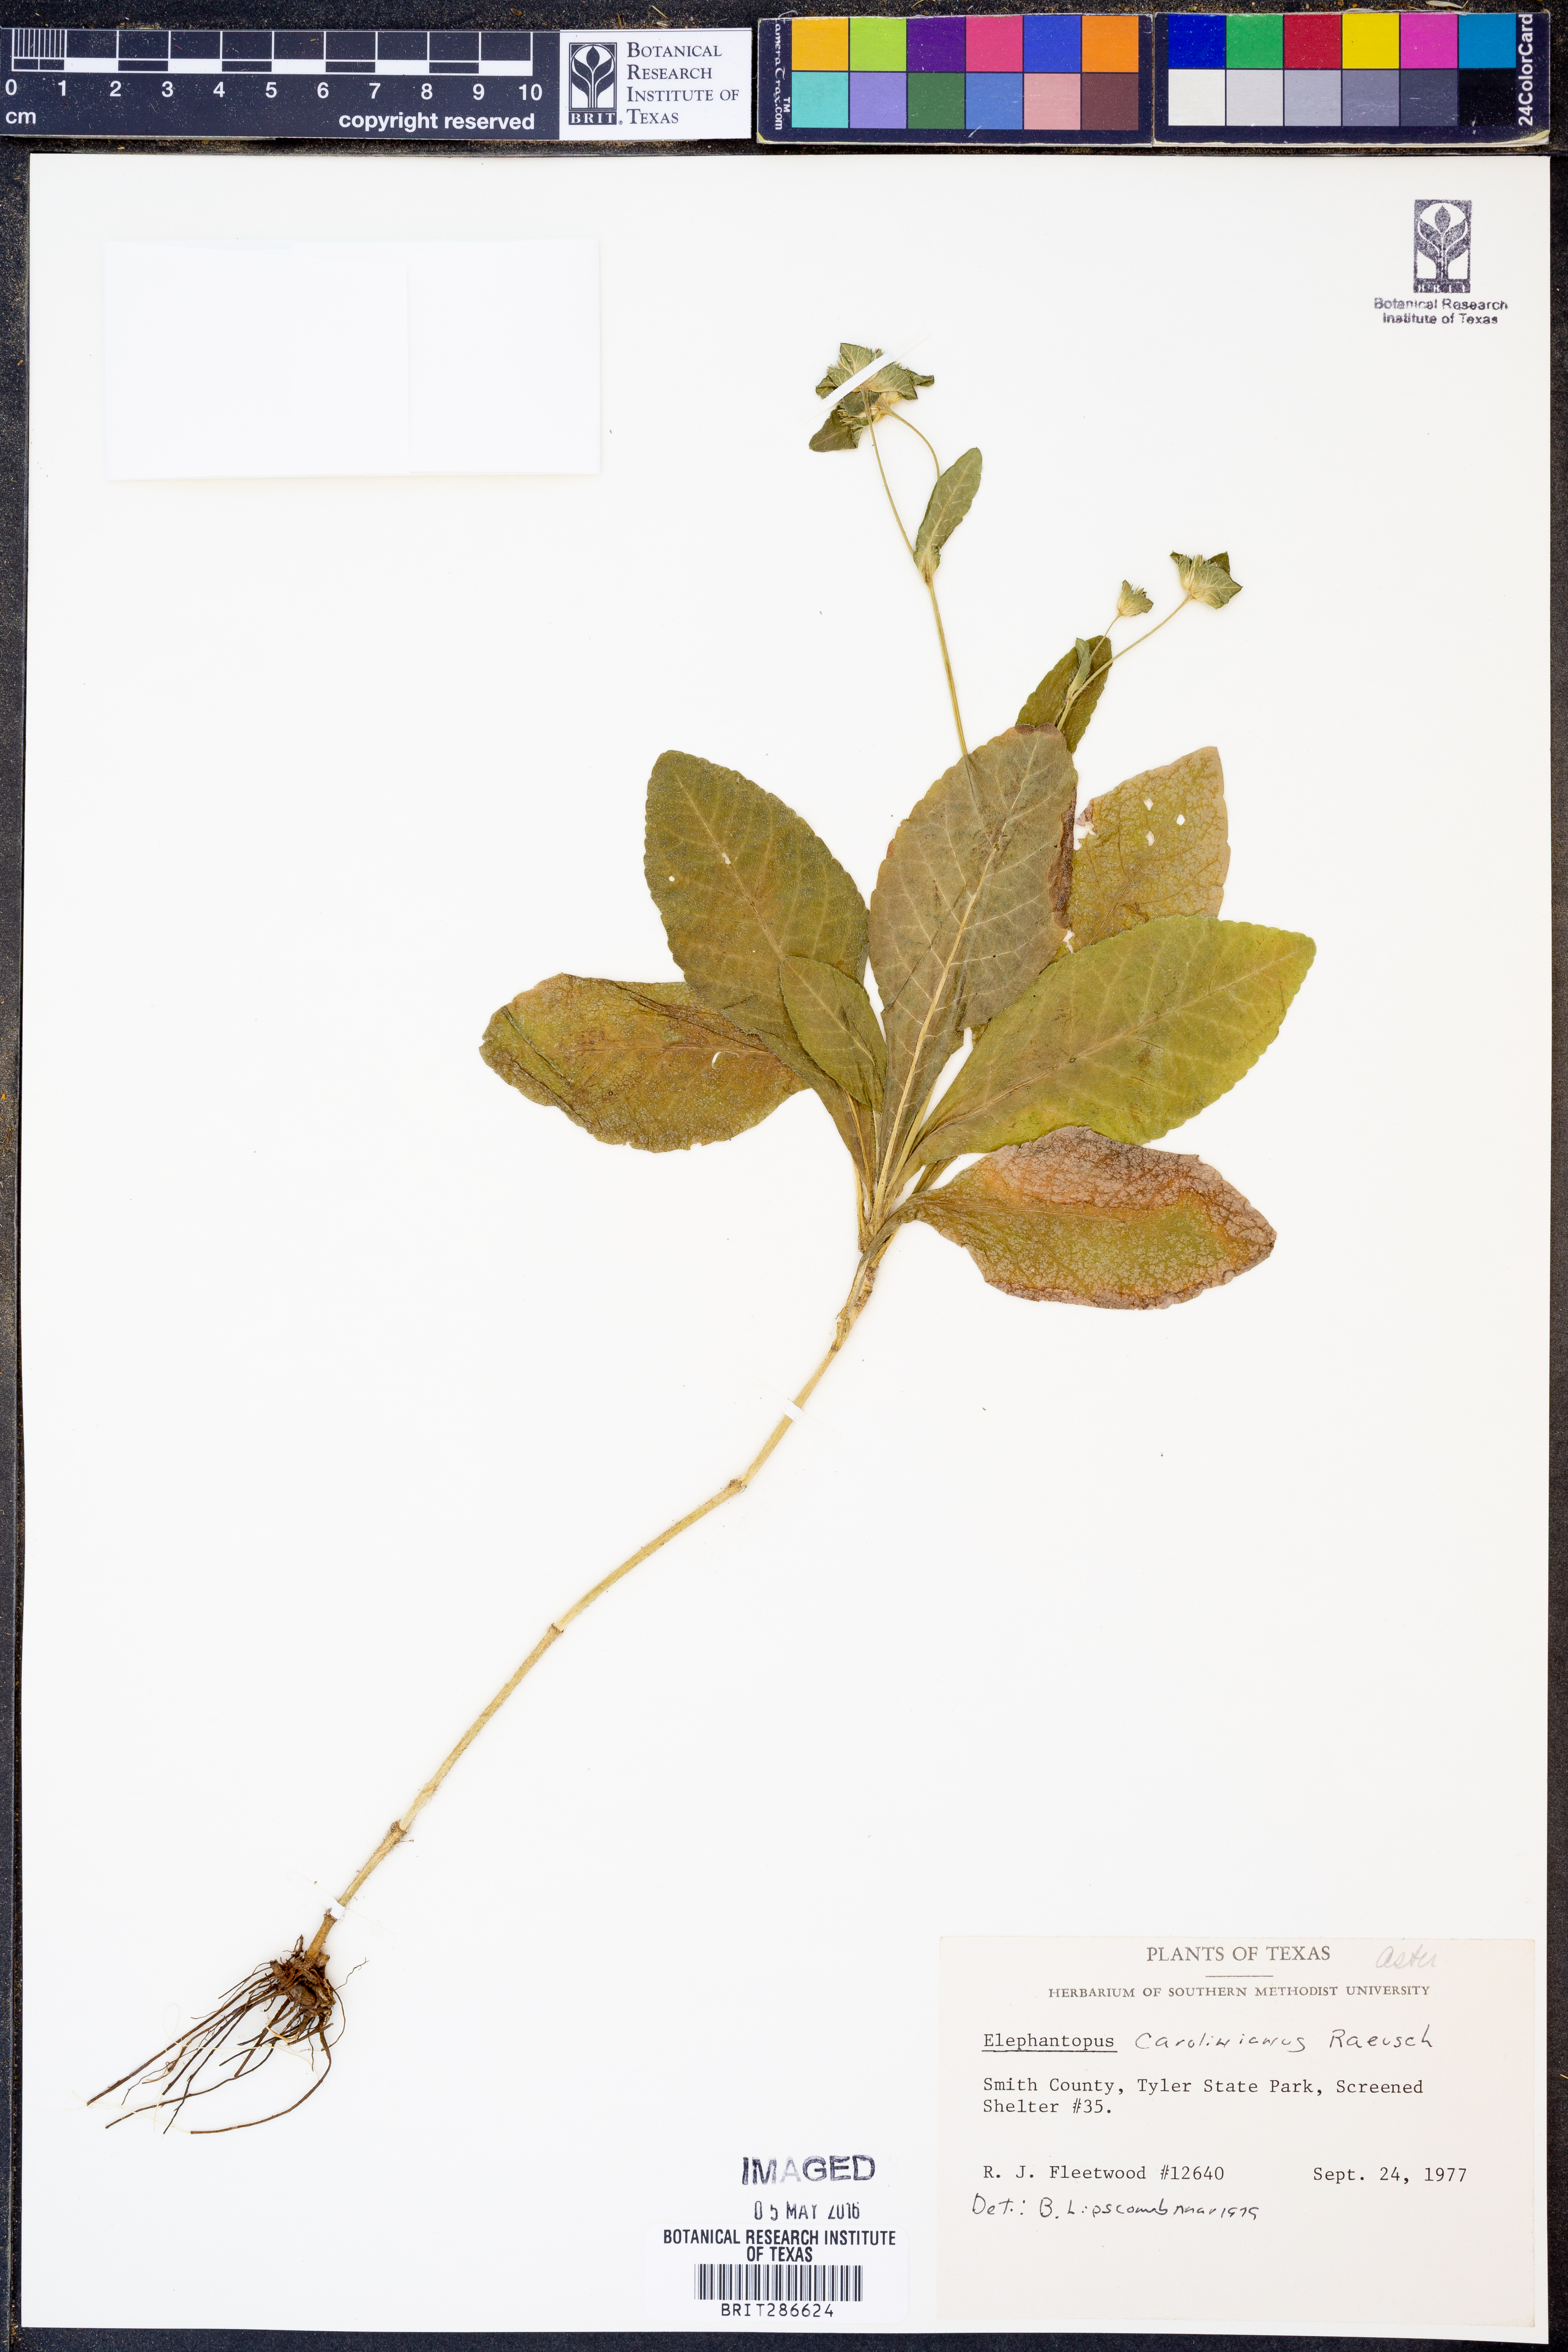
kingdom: Plantae
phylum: Tracheophyta
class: Magnoliopsida
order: Asterales
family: Asteraceae
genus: Elephantopus
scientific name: Elephantopus carolinianus
